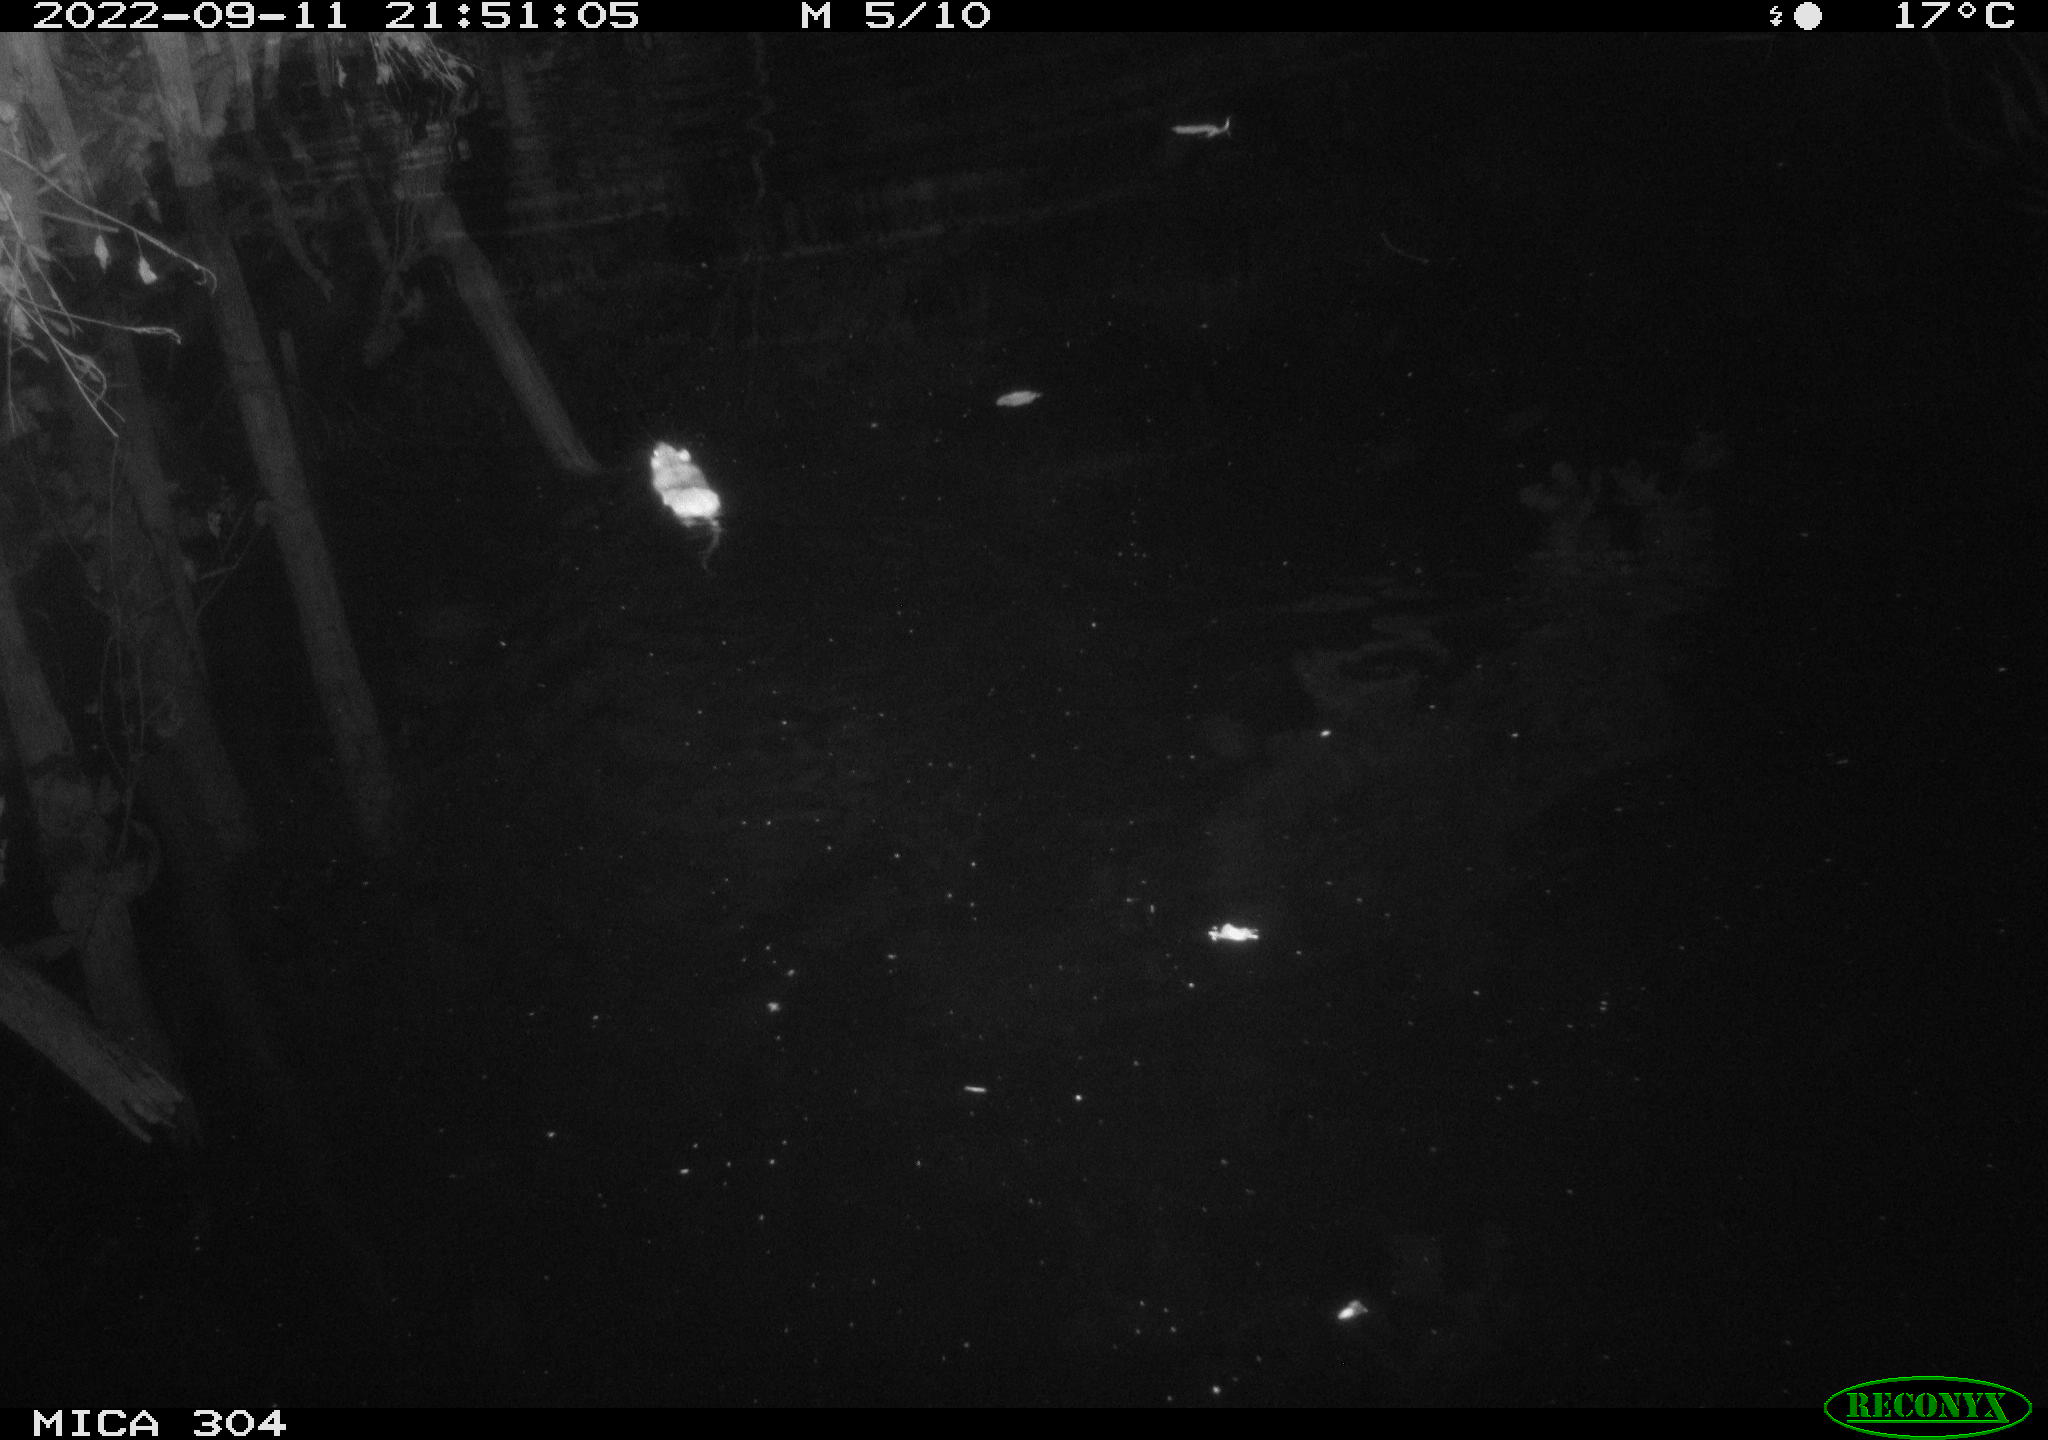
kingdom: Animalia
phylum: Chordata
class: Mammalia
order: Rodentia
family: Muridae
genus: Rattus
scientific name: Rattus norvegicus
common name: Brown rat
